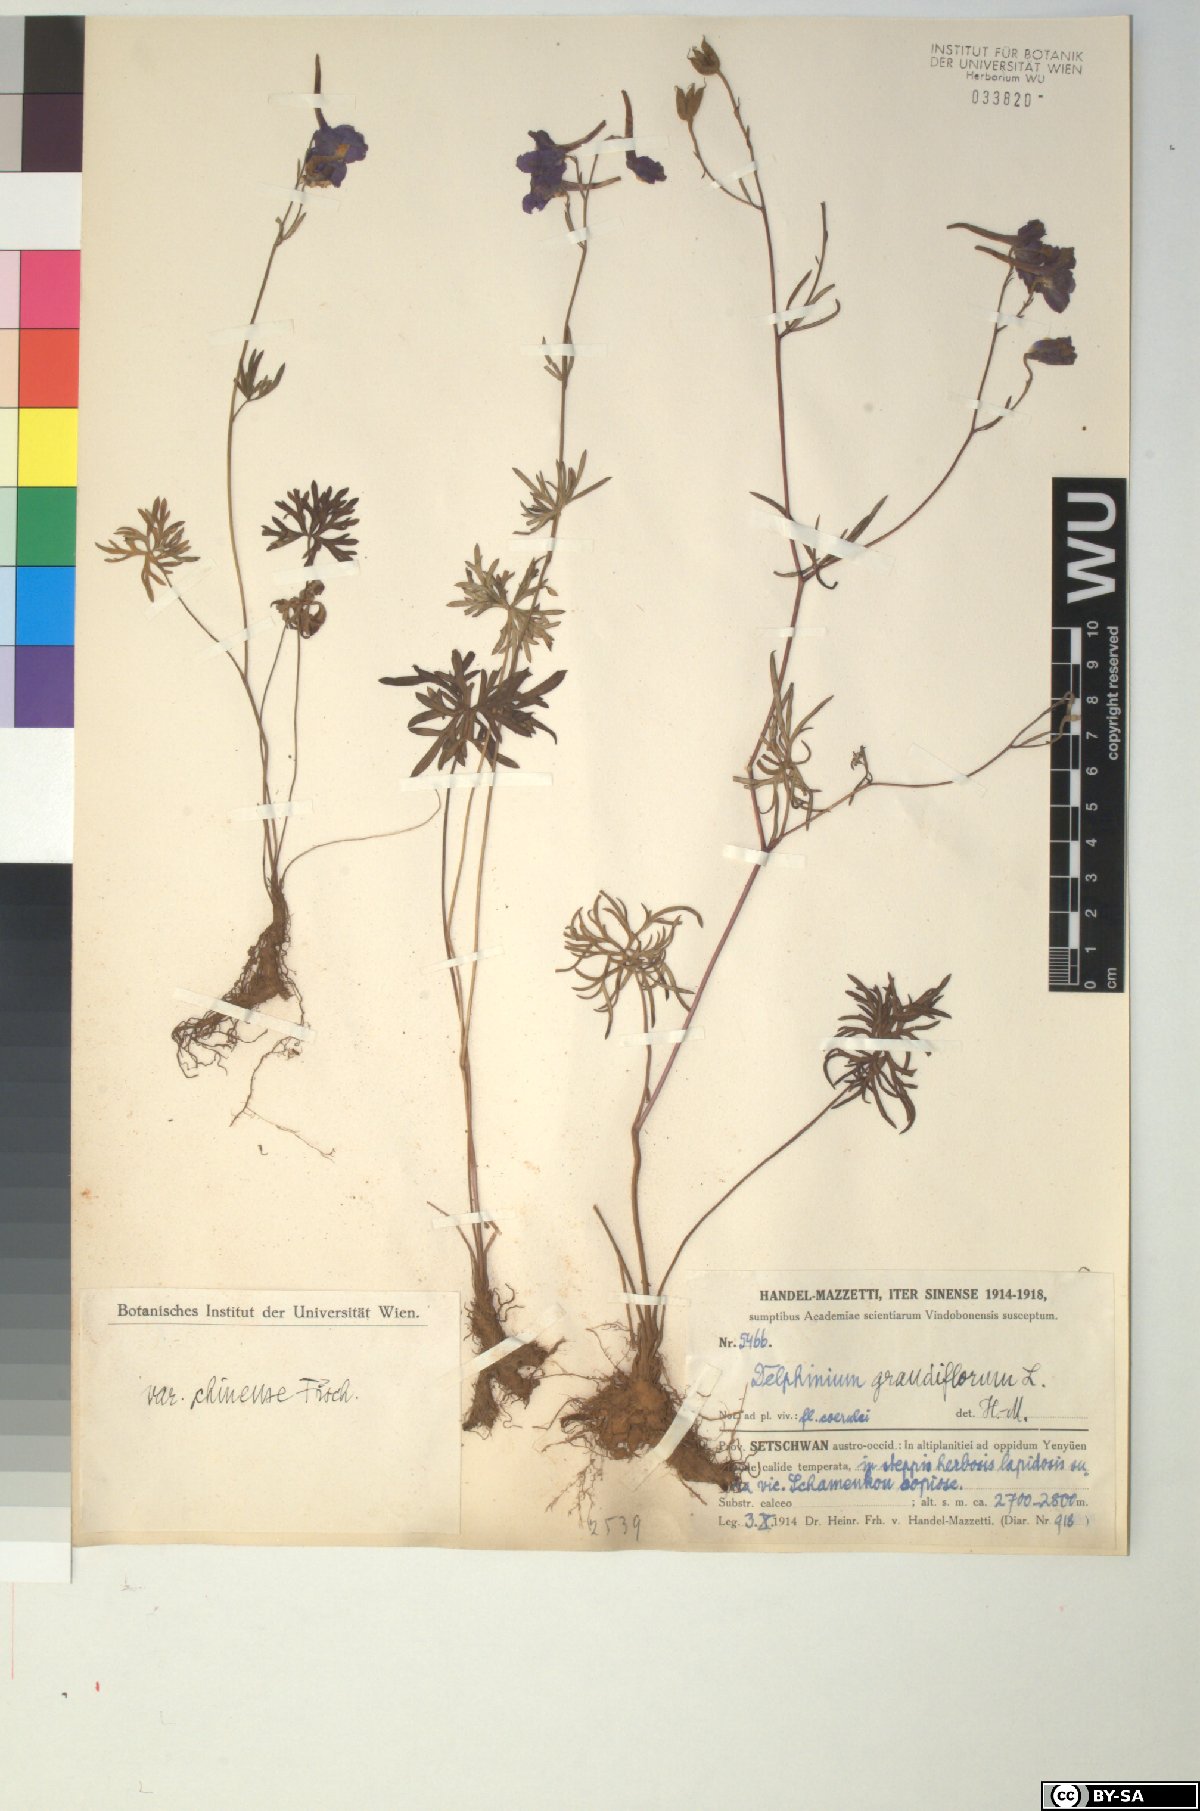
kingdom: Plantae
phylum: Tracheophyta
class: Magnoliopsida
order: Ranunculales
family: Ranunculaceae
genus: Delphinium
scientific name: Delphinium grandiflorum
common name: Siberian larkspur
